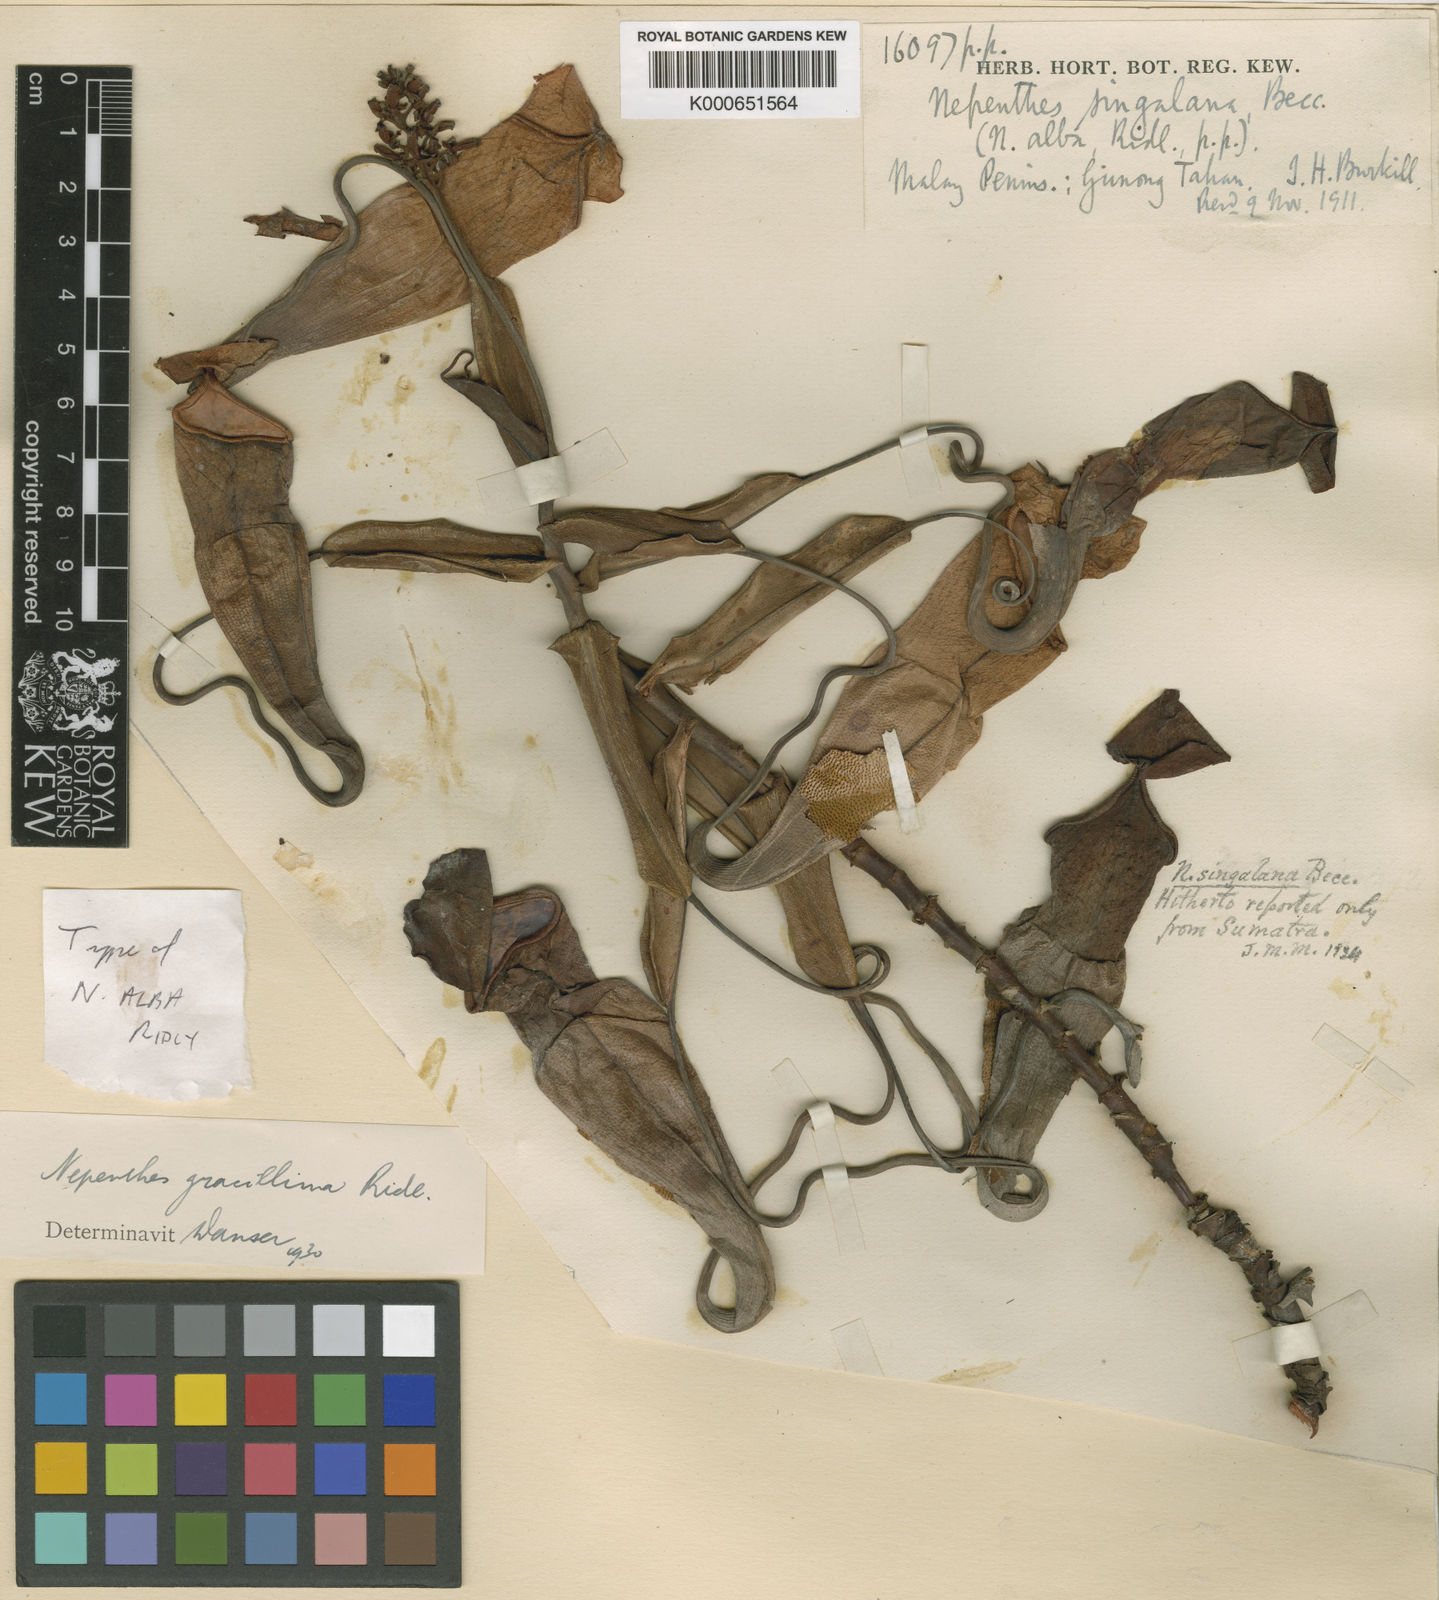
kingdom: Plantae
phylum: Tracheophyta
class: Magnoliopsida
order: Caryophyllales
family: Nepenthaceae
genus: Nepenthes
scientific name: Nepenthes gracillima
